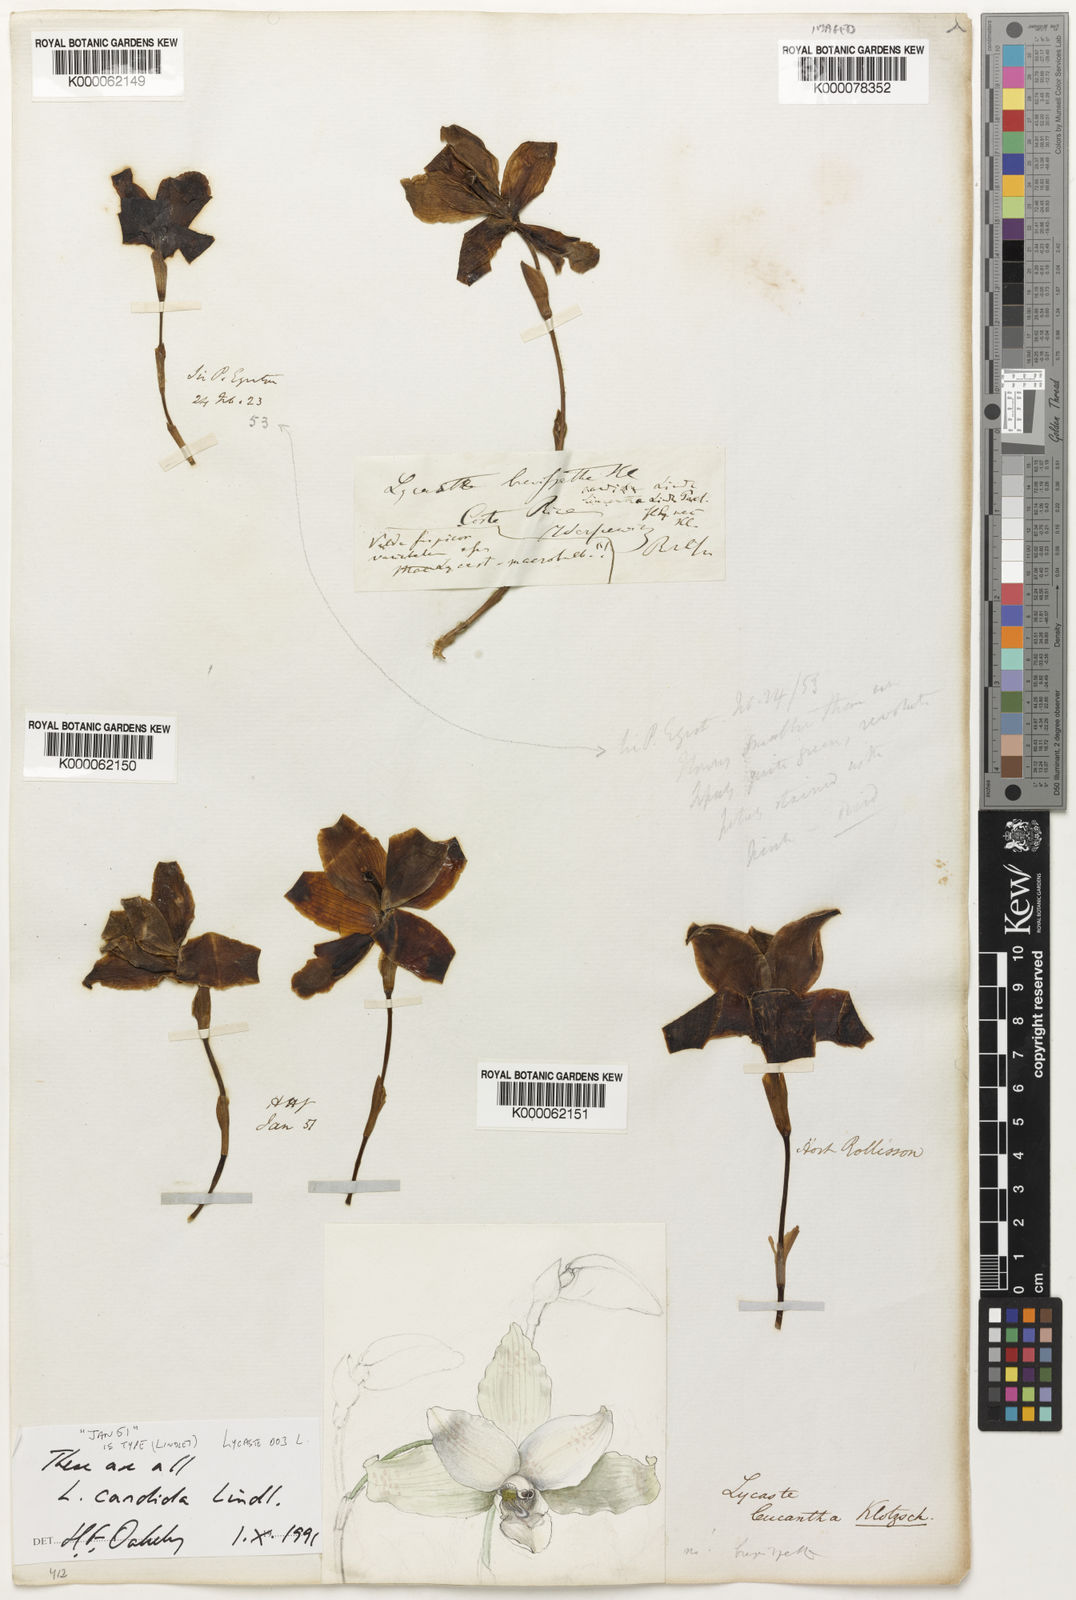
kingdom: Plantae
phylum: Tracheophyta
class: Liliopsida
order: Asparagales
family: Orchidaceae
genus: Lycaste
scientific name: Lycaste
